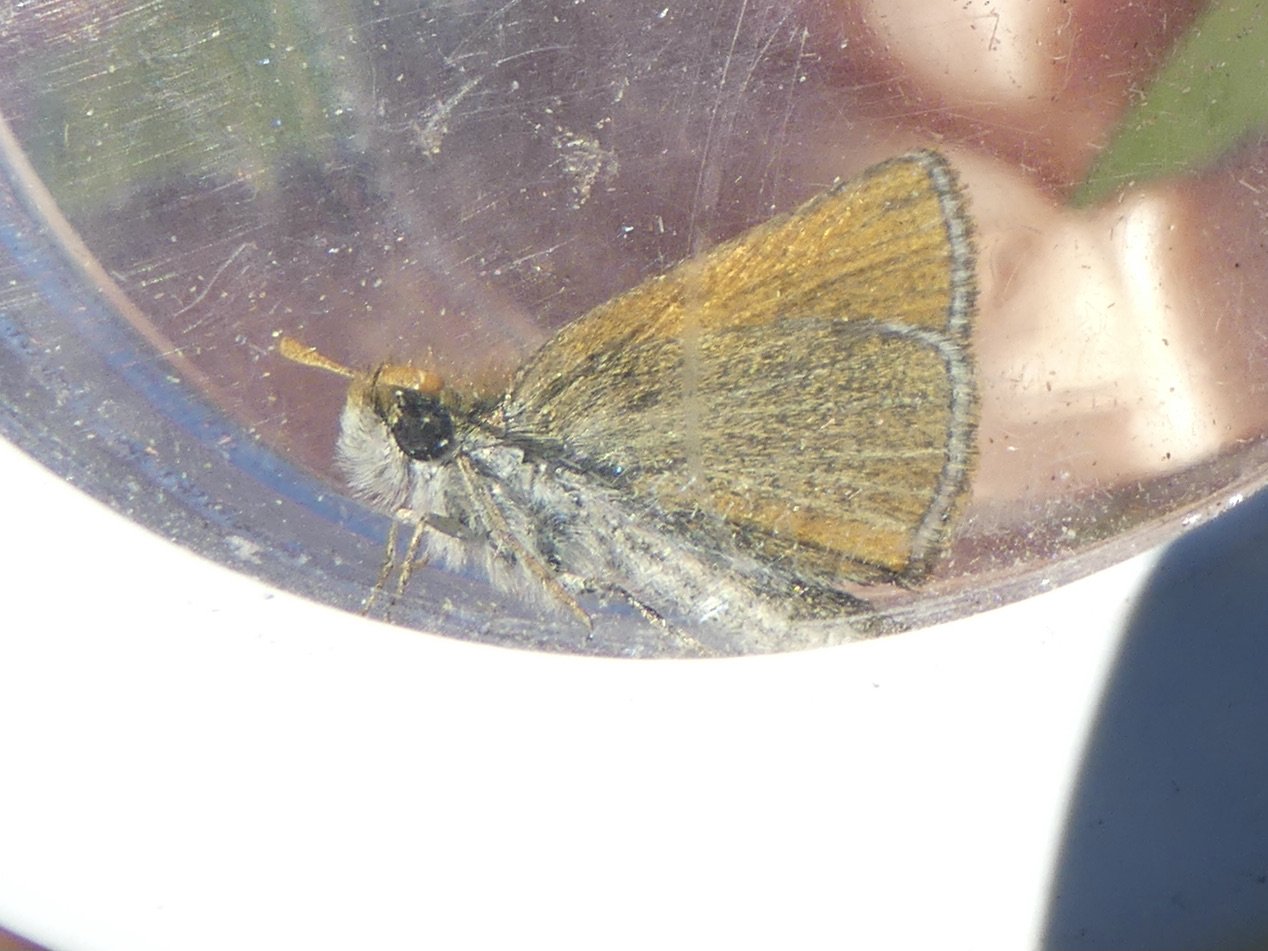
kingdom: Animalia
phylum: Arthropoda
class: Insecta
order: Lepidoptera
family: Hesperiidae
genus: Thymelicus
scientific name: Thymelicus lineola
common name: European Skipper
